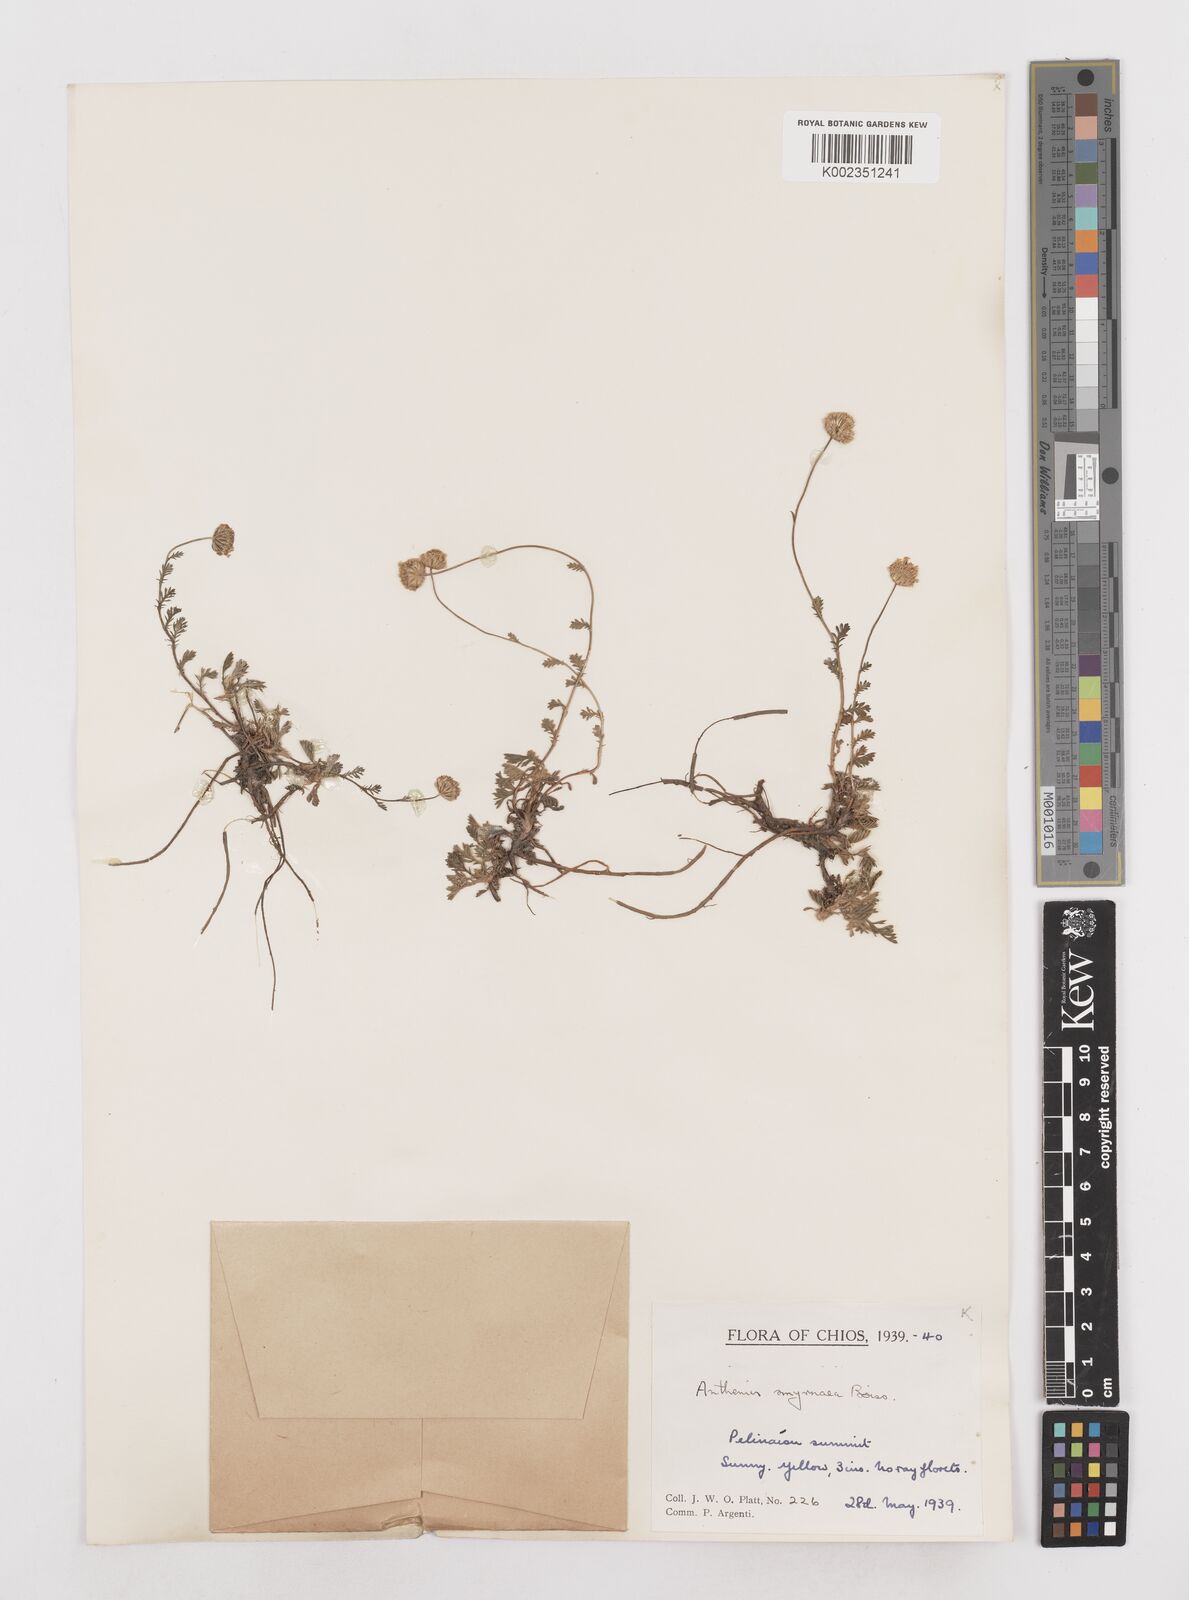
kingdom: Plantae
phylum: Tracheophyta
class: Magnoliopsida
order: Asterales
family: Asteraceae
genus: Anthemis
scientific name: Anthemis cretica
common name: Mountain dog-daisy
